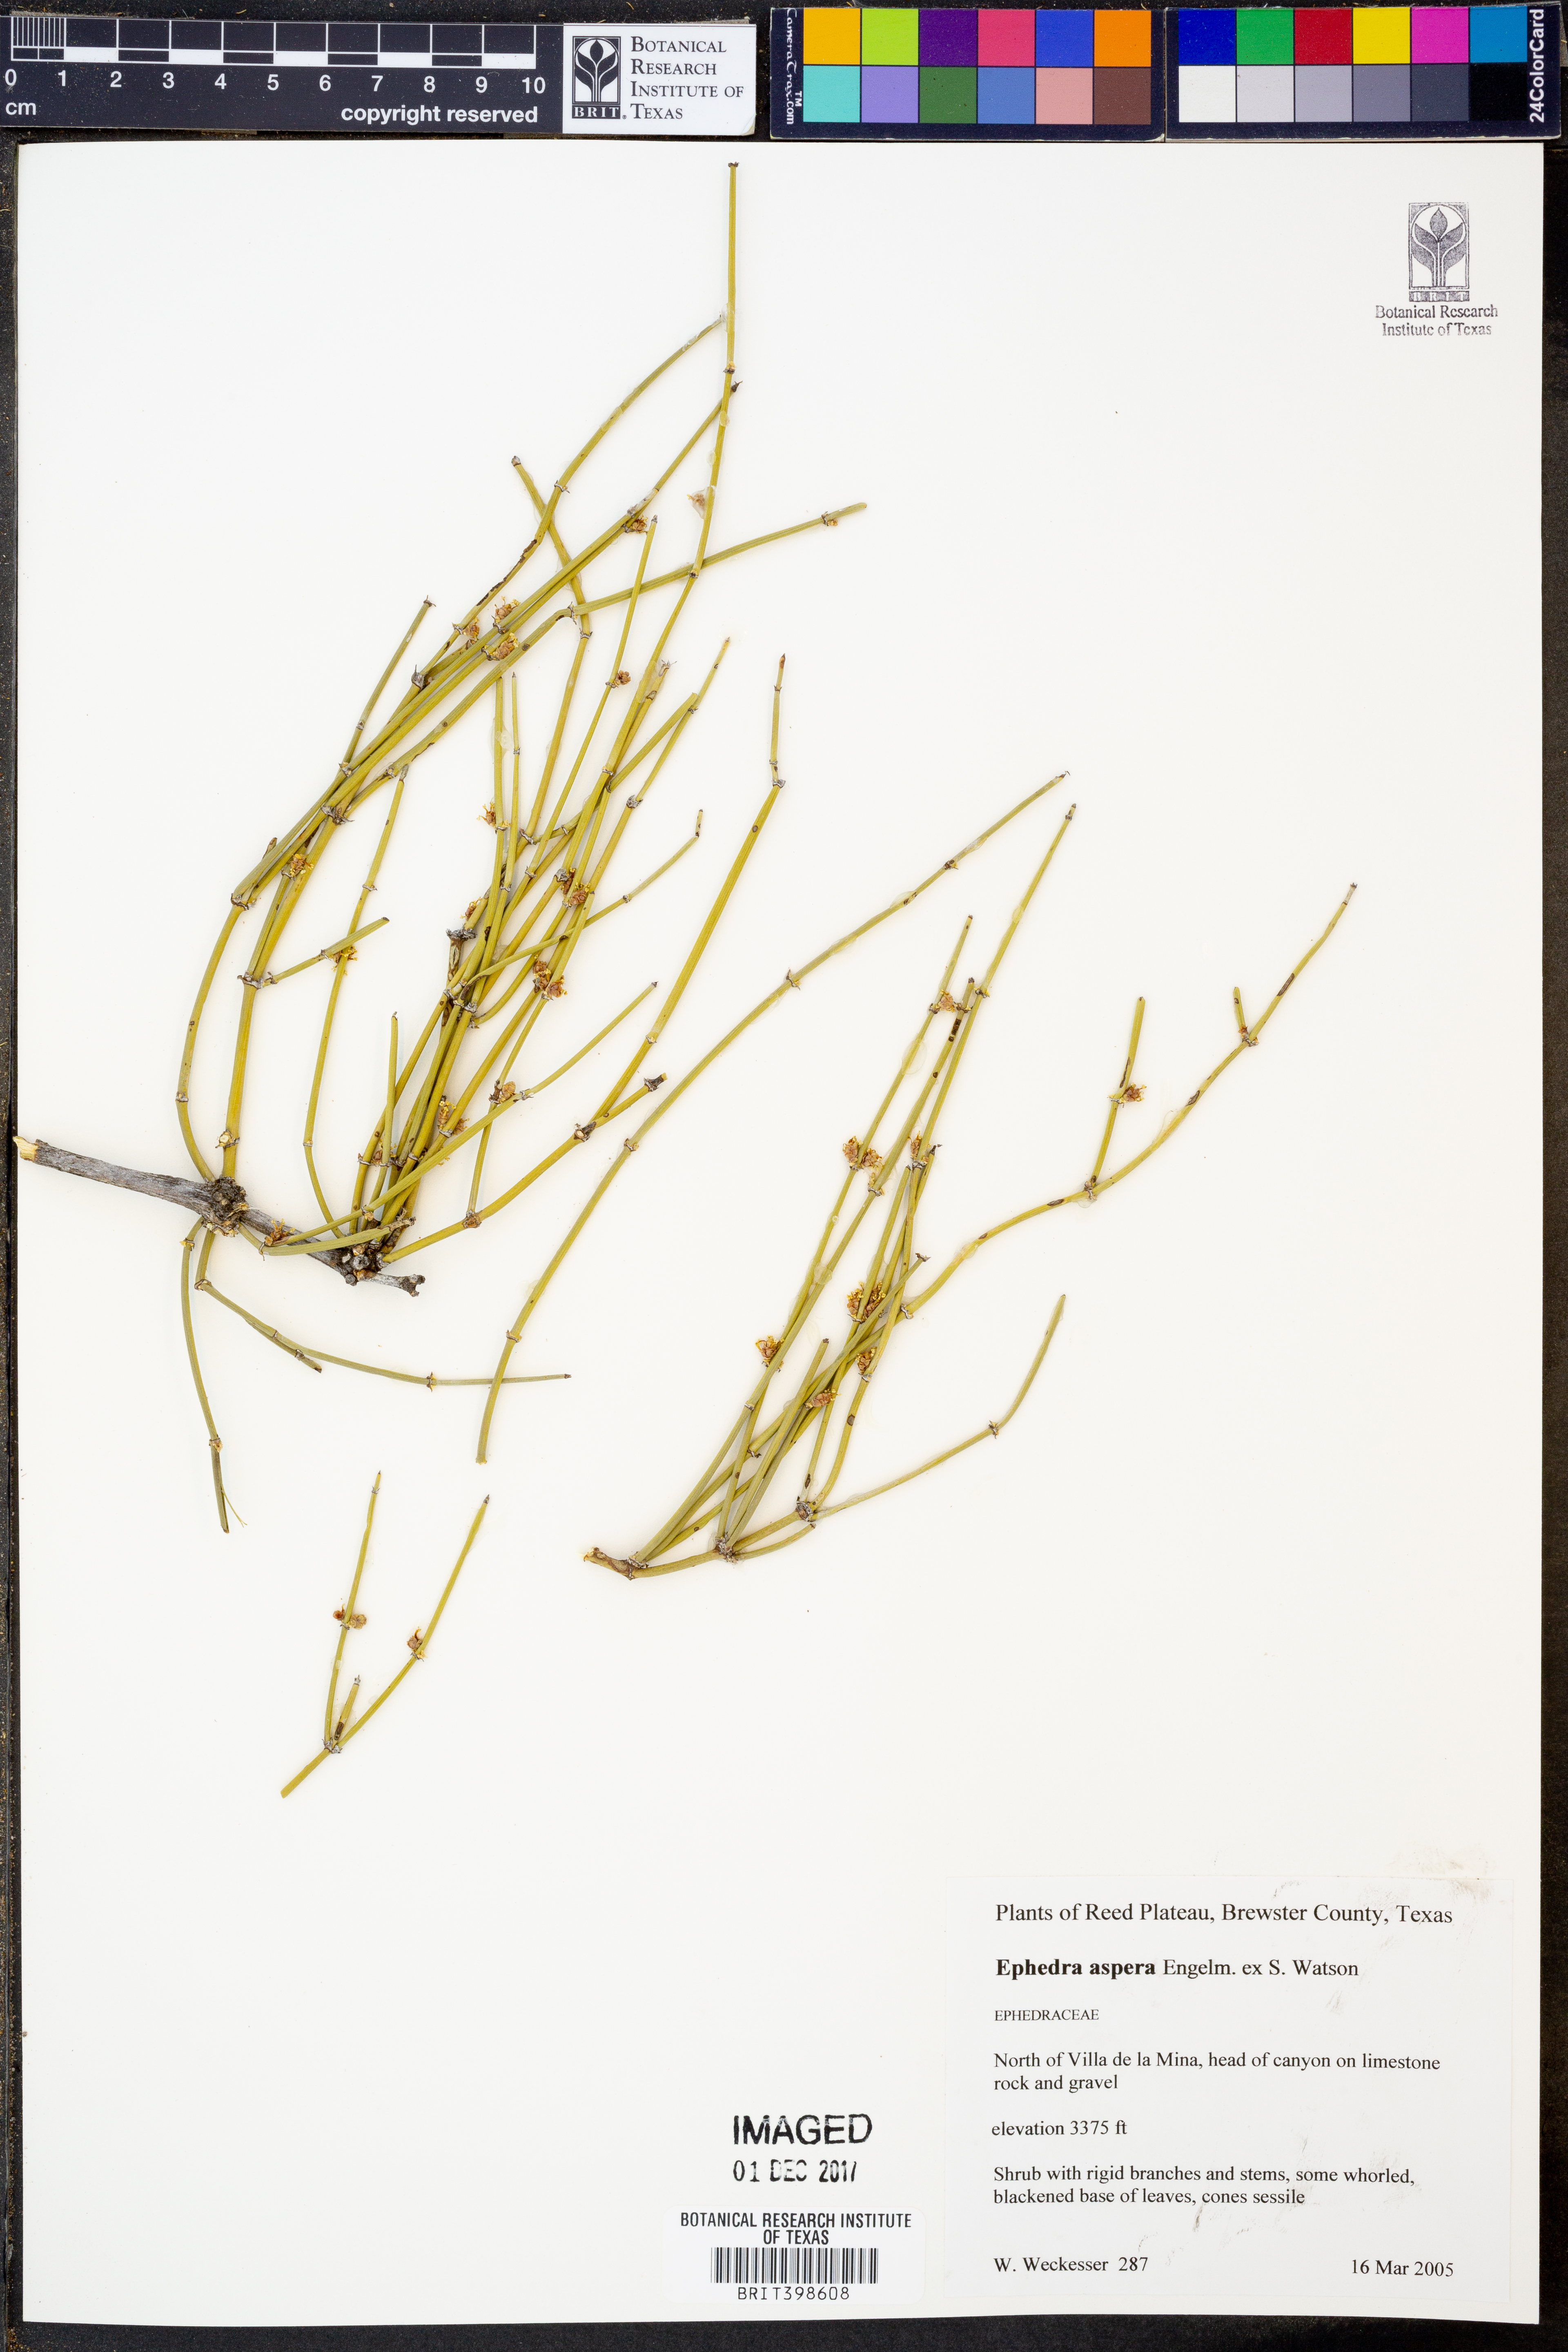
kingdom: Plantae
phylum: Tracheophyta
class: Gnetopsida
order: Ephedrales
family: Ephedraceae
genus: Ephedra
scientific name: Ephedra aspera
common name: Boundary ephedra
